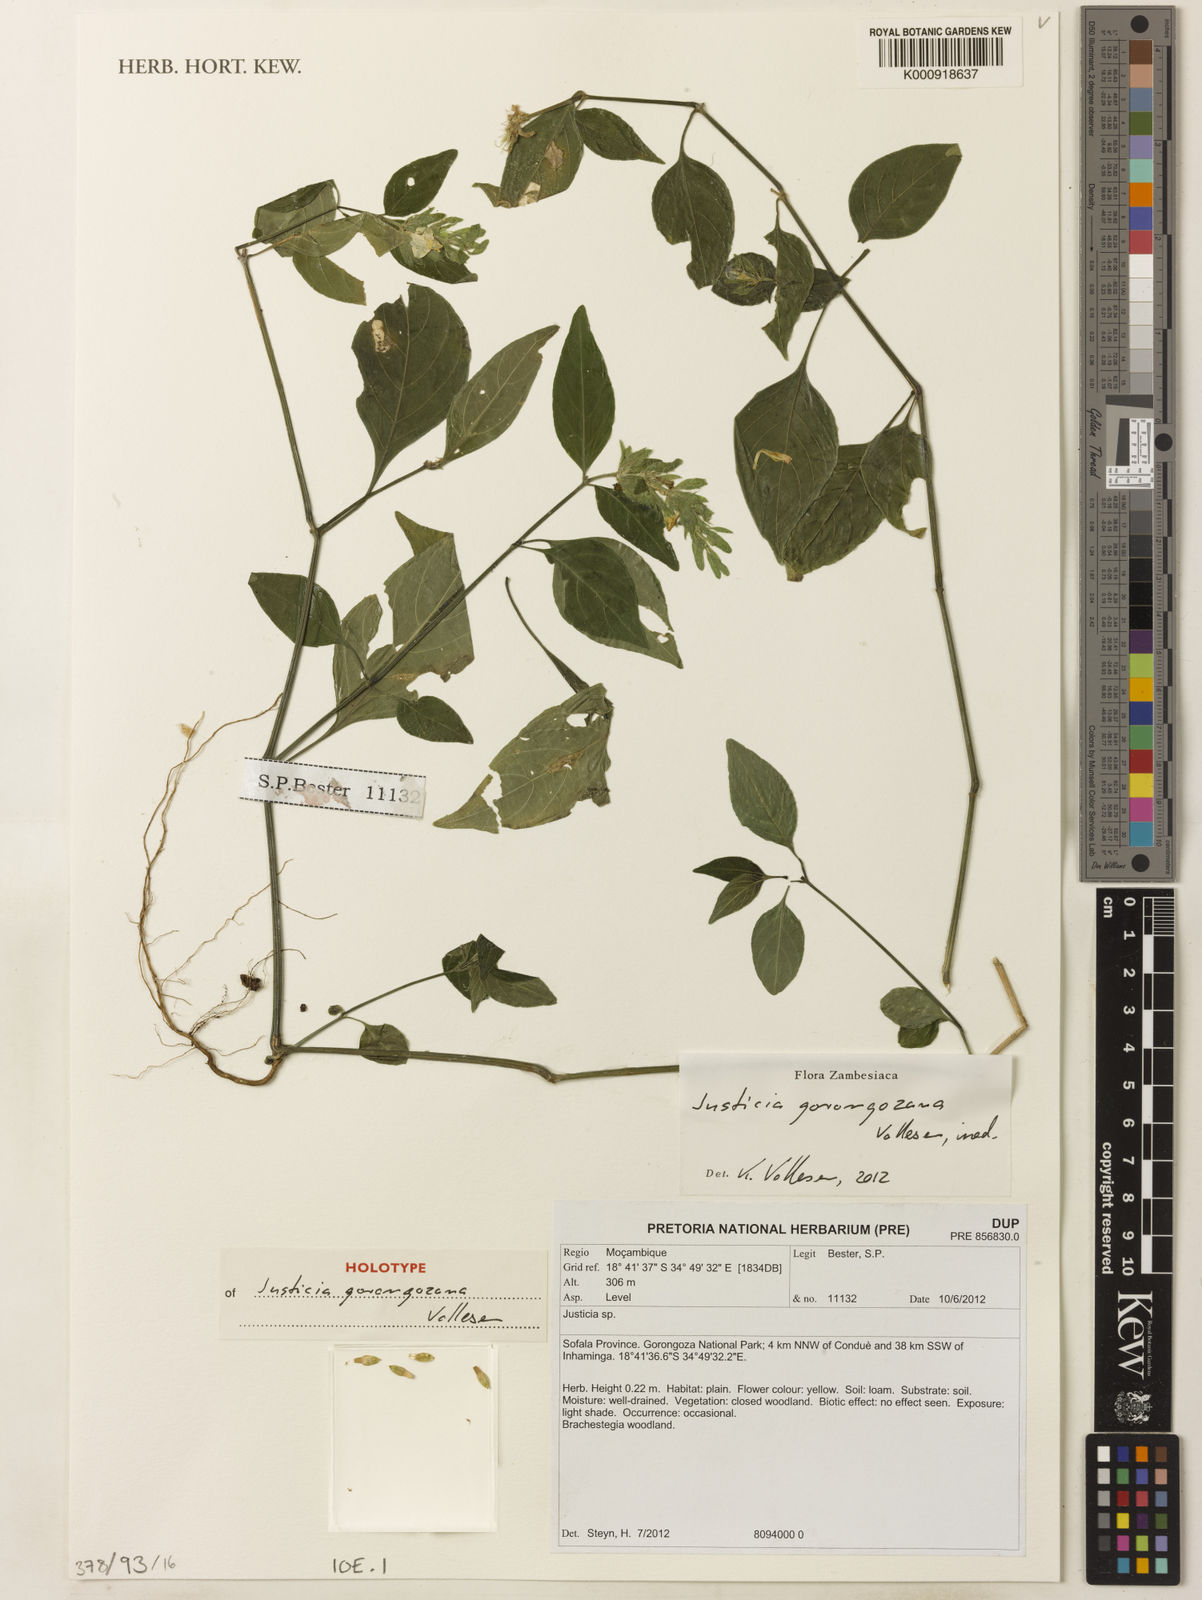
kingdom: Plantae
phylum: Tracheophyta
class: Magnoliopsida
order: Lamiales
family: Acanthaceae
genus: Justicia
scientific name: Justicia gorongozana
